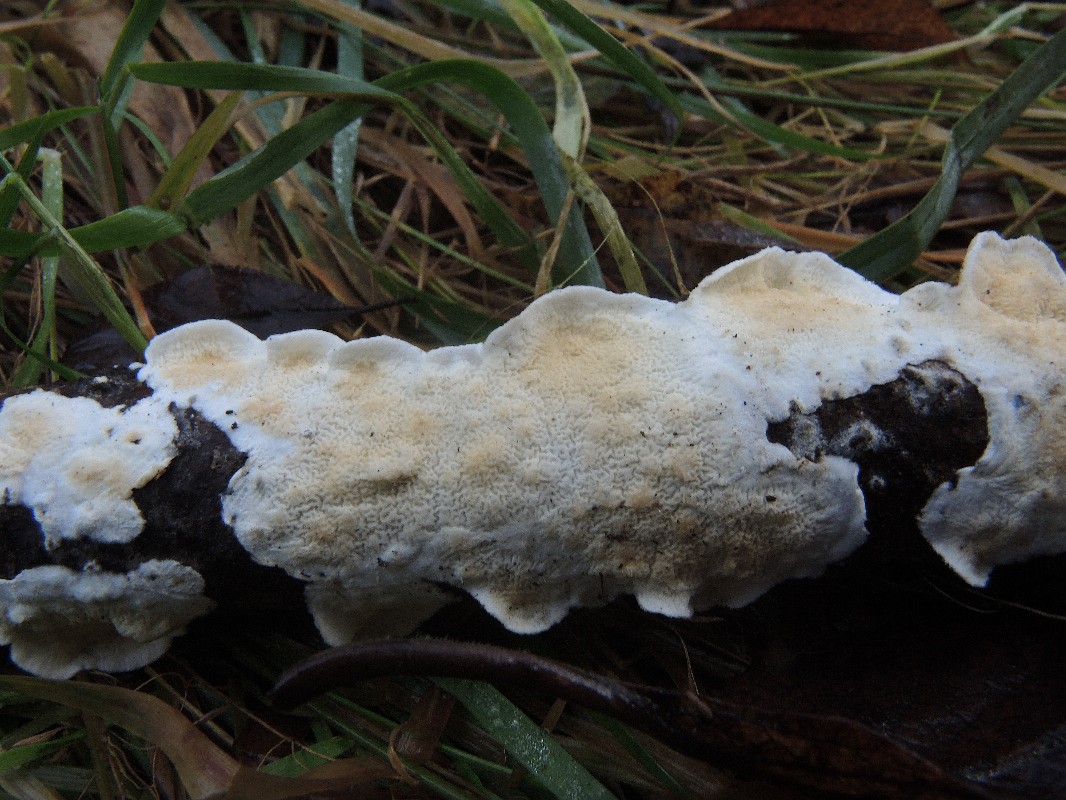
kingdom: Fungi
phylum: Basidiomycota
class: Agaricomycetes
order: Polyporales
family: Irpicaceae
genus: Byssomerulius
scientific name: Byssomerulius corium
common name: læder-åresvamp
